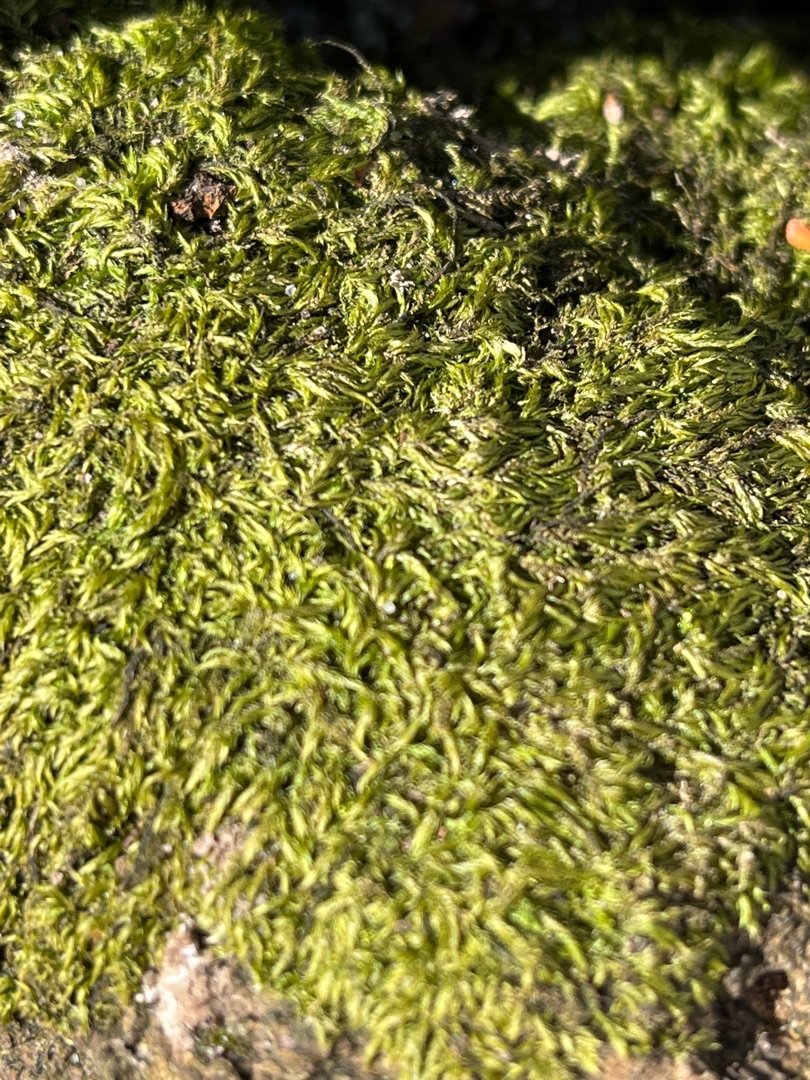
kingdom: Plantae
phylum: Bryophyta
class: Bryopsida
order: Hypnales
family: Lembophyllaceae
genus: Pseudisothecium
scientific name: Pseudisothecium myosuroides
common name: Slank stammemos
